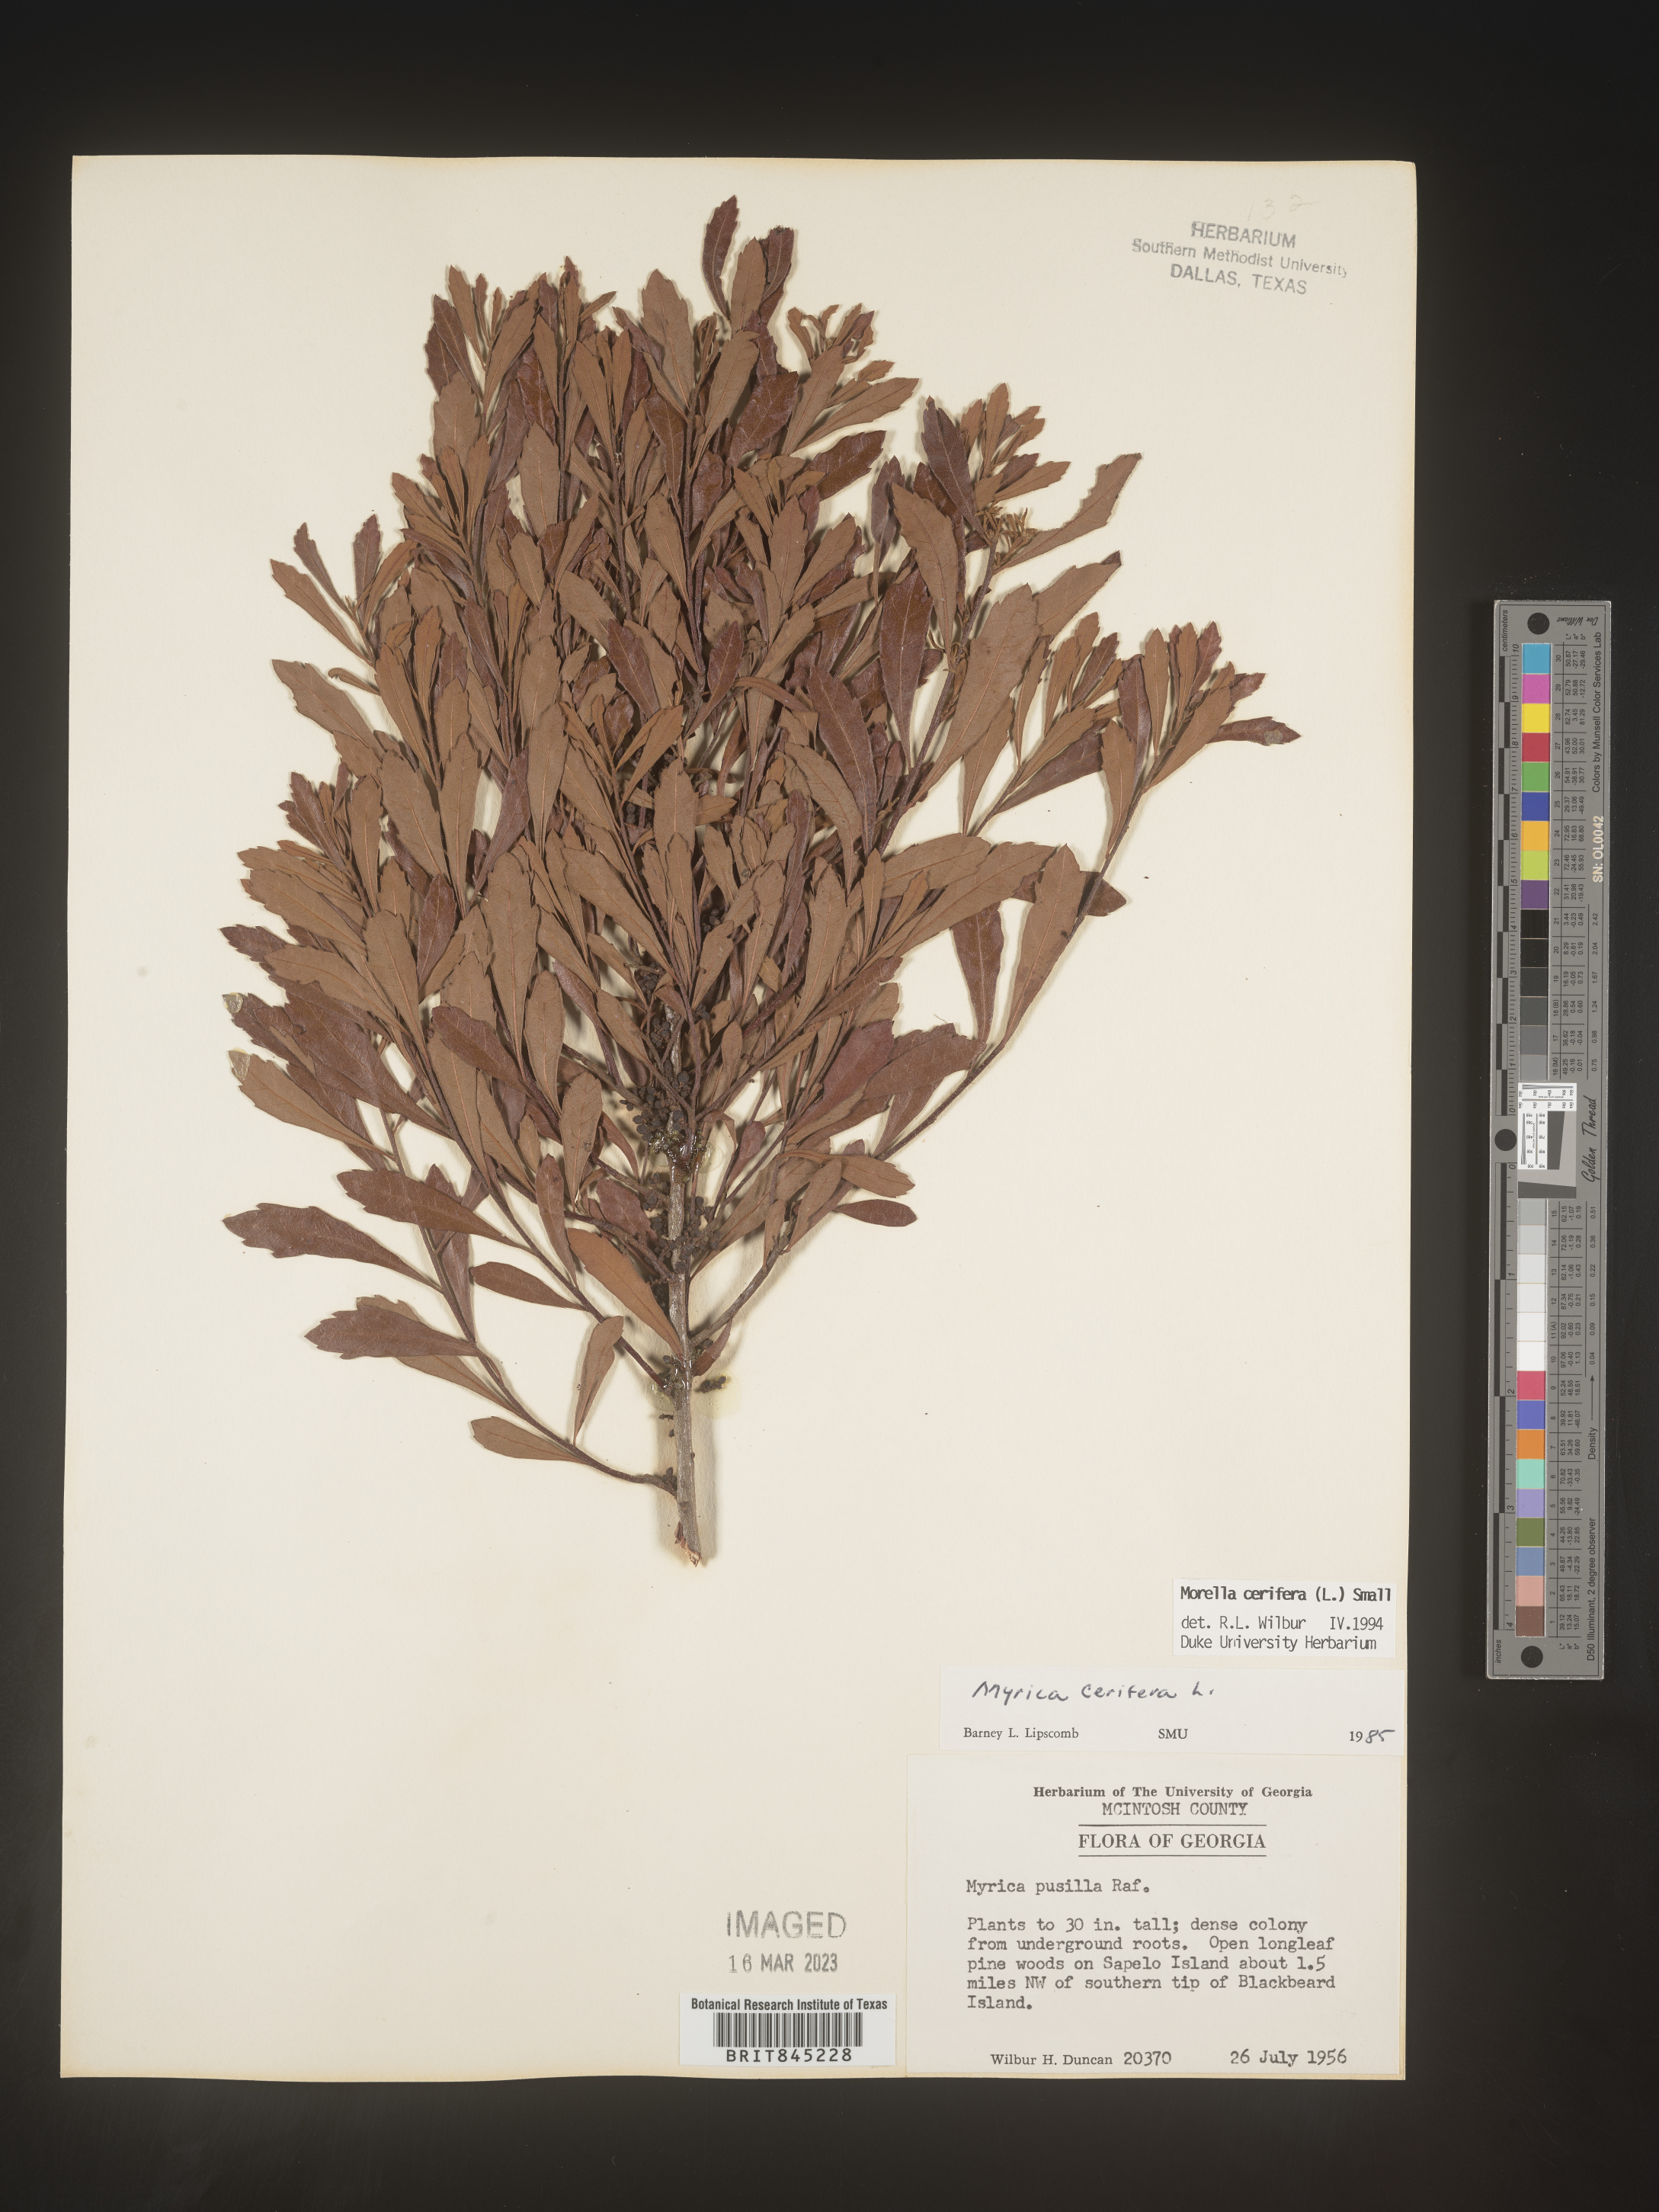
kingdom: Plantae
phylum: Tracheophyta
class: Magnoliopsida
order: Fagales
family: Myricaceae
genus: Morella
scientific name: Morella cerifera
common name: Wax myrtle
